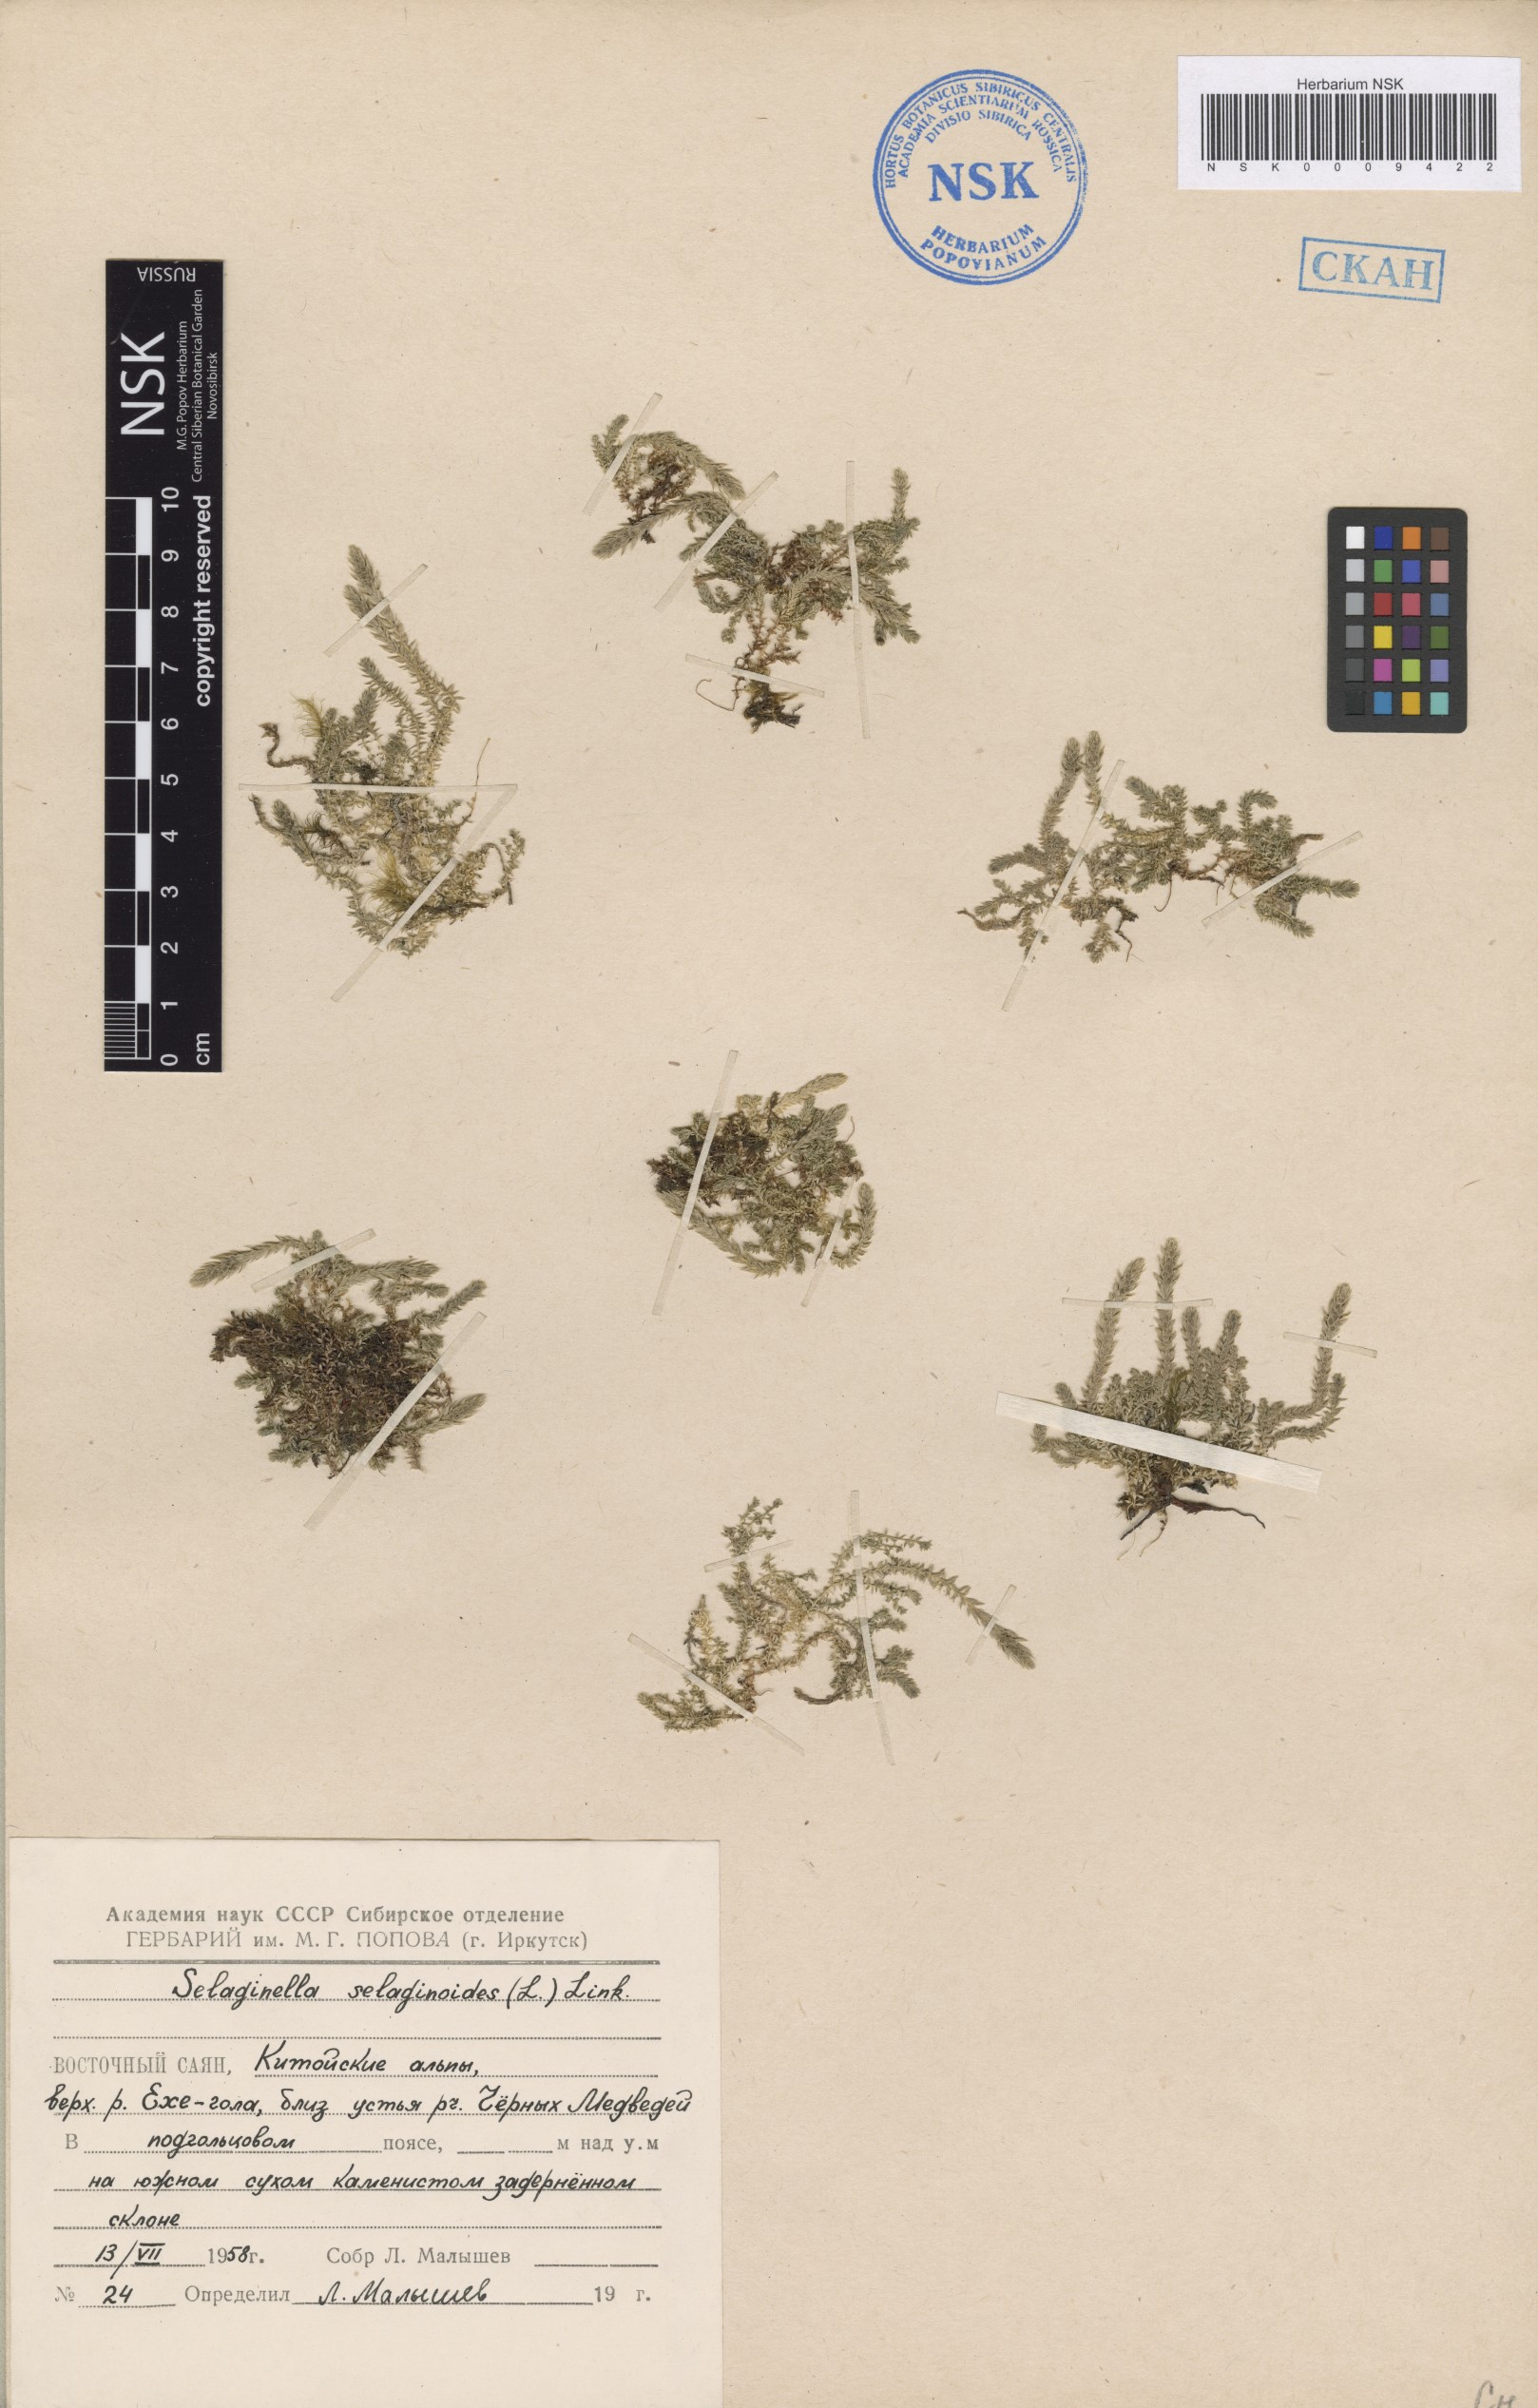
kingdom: Plantae
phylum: Tracheophyta
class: Lycopodiopsida
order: Selaginellales
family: Selaginellaceae
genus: Selaginella
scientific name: Selaginella selaginoides
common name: Prickly mountain-moss
